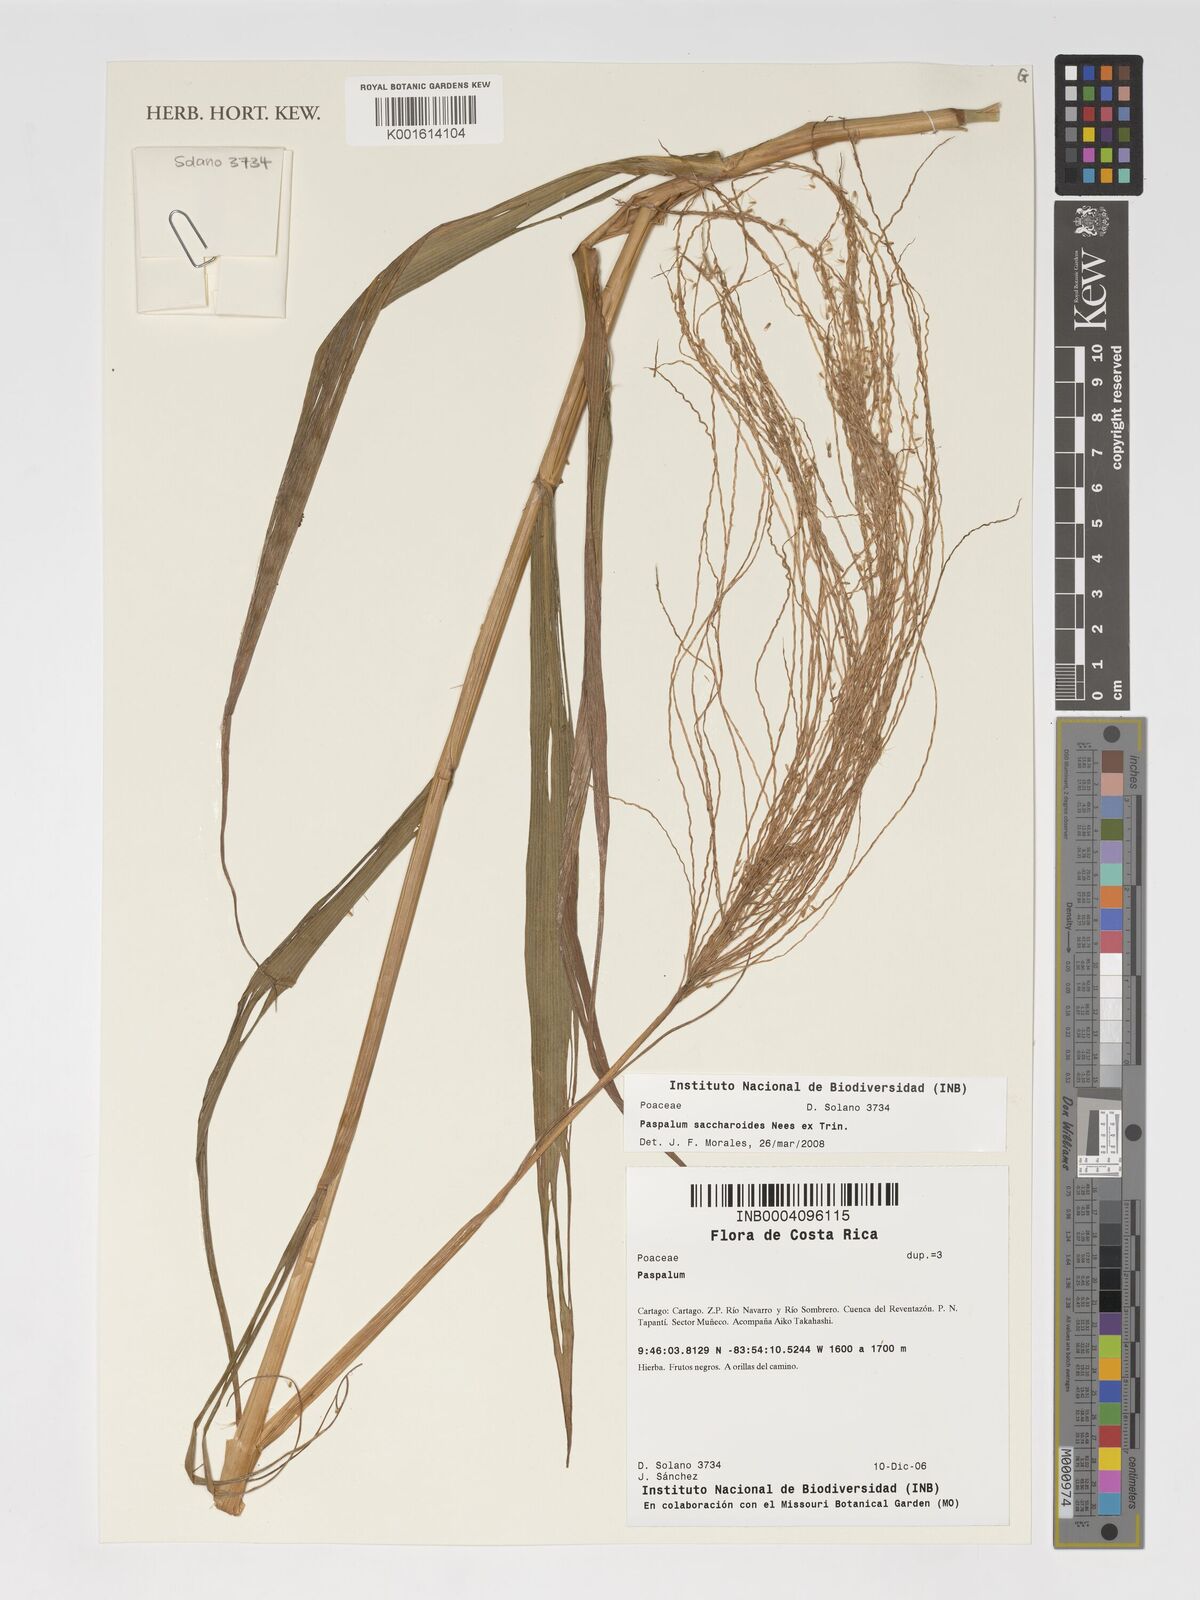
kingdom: Plantae
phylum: Tracheophyta
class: Liliopsida
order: Poales
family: Poaceae
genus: Paspalum
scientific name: Paspalum saccharoides
